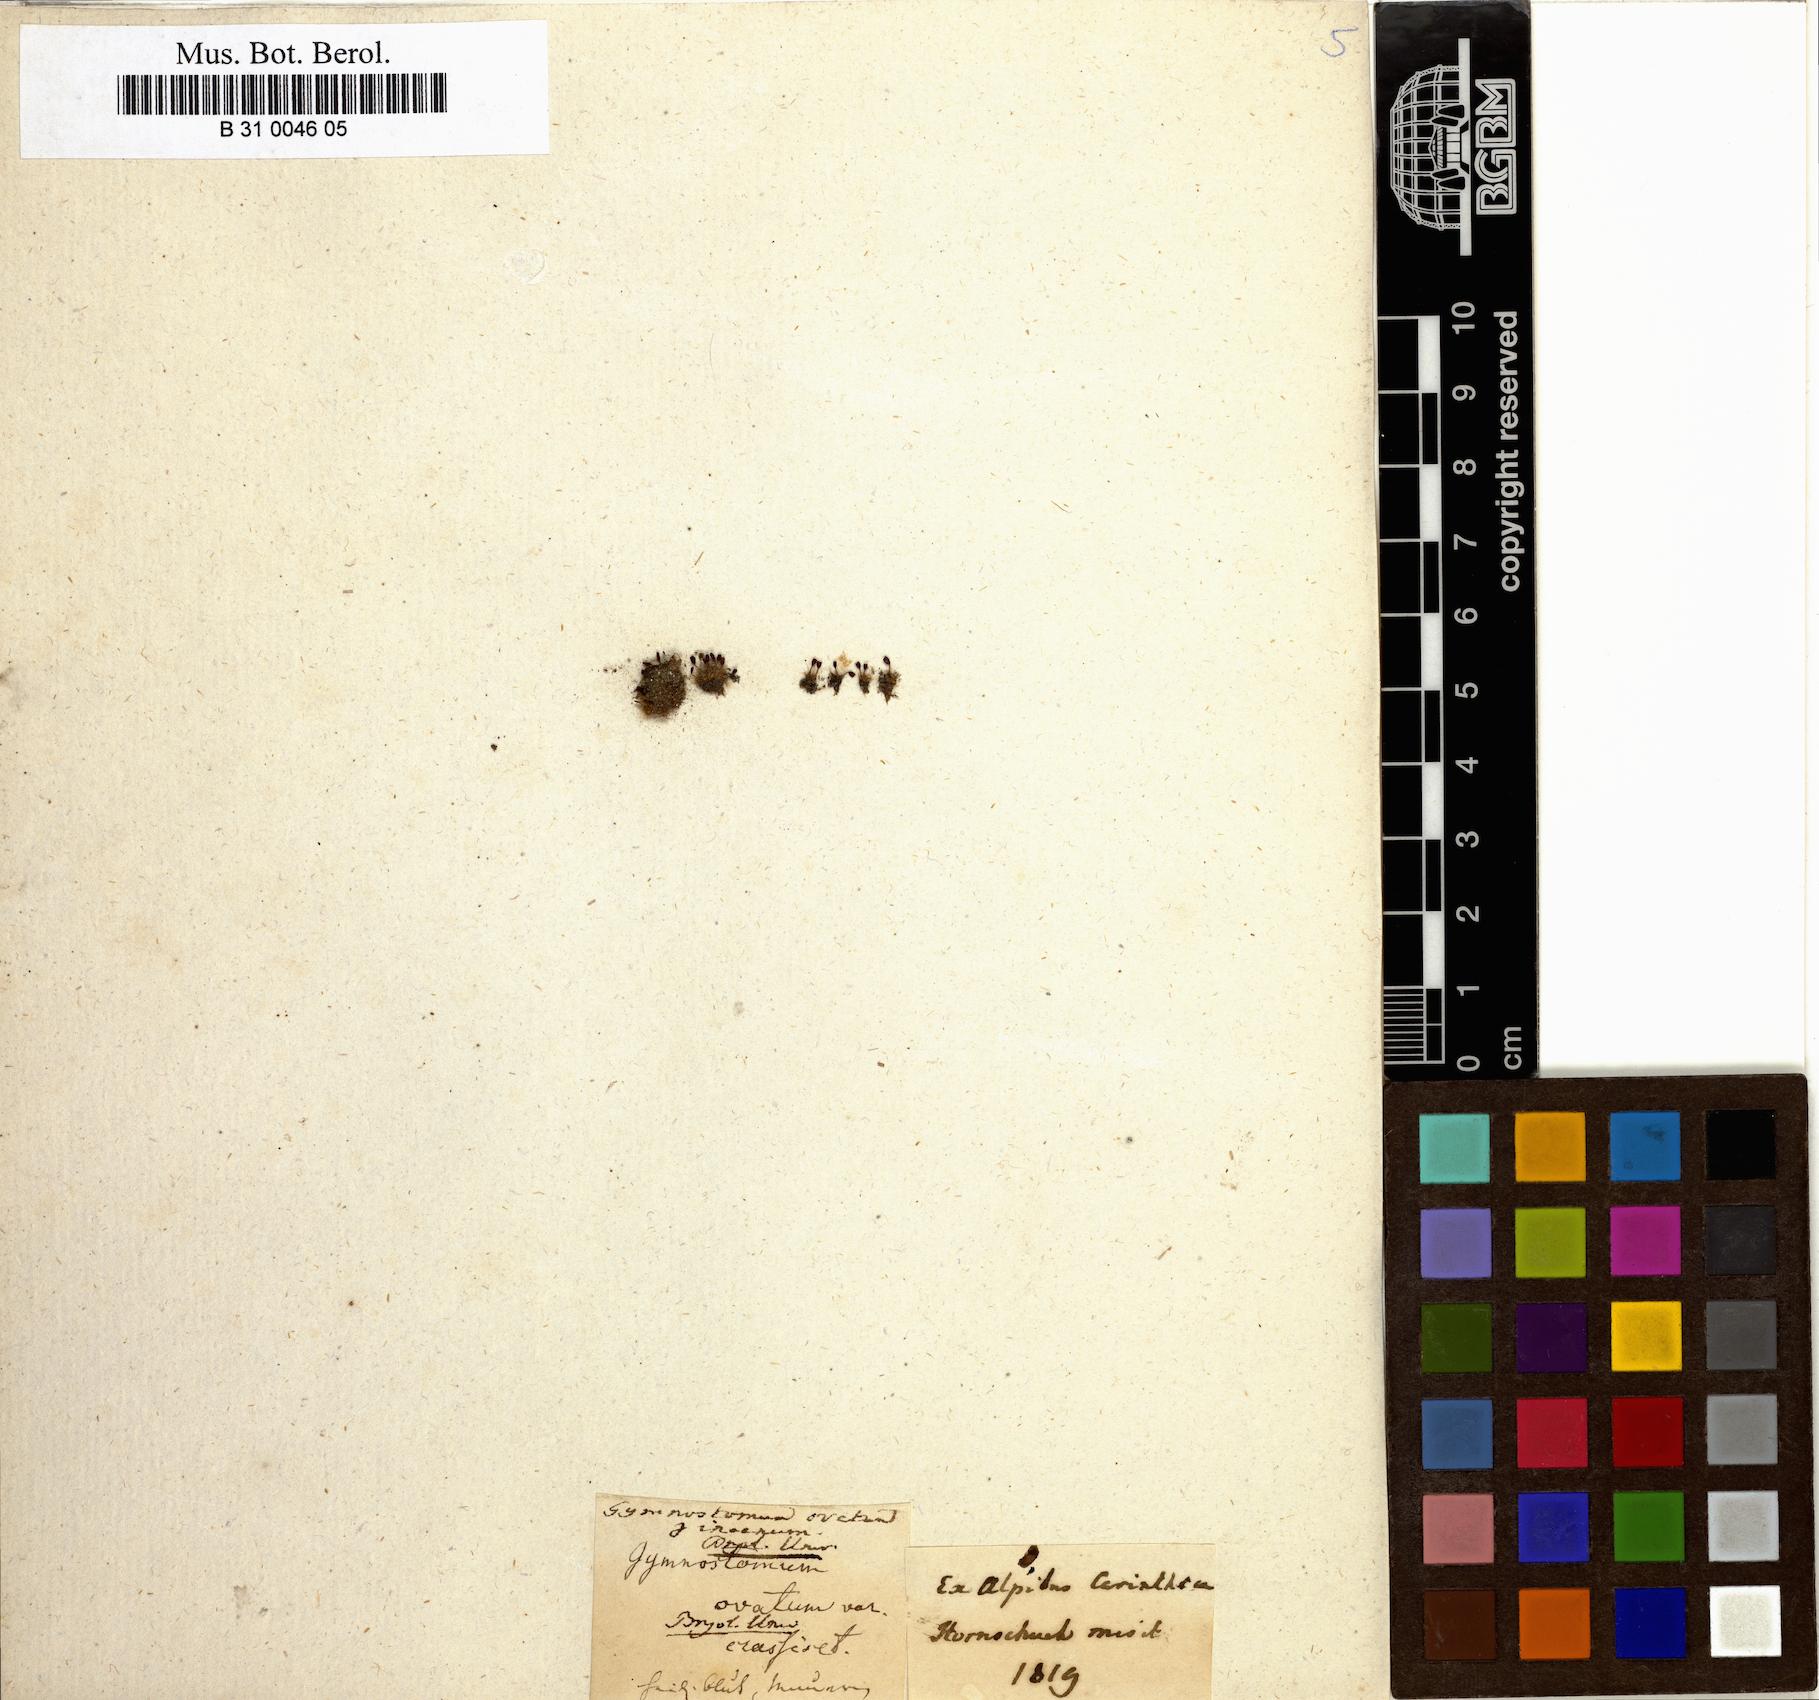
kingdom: Plantae
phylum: Bryophyta
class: Bryopsida
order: Pottiales
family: Pottiaceae
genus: Pterygoneurum
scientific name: Pterygoneurum ovatum
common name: Ovate pterygoneurum
